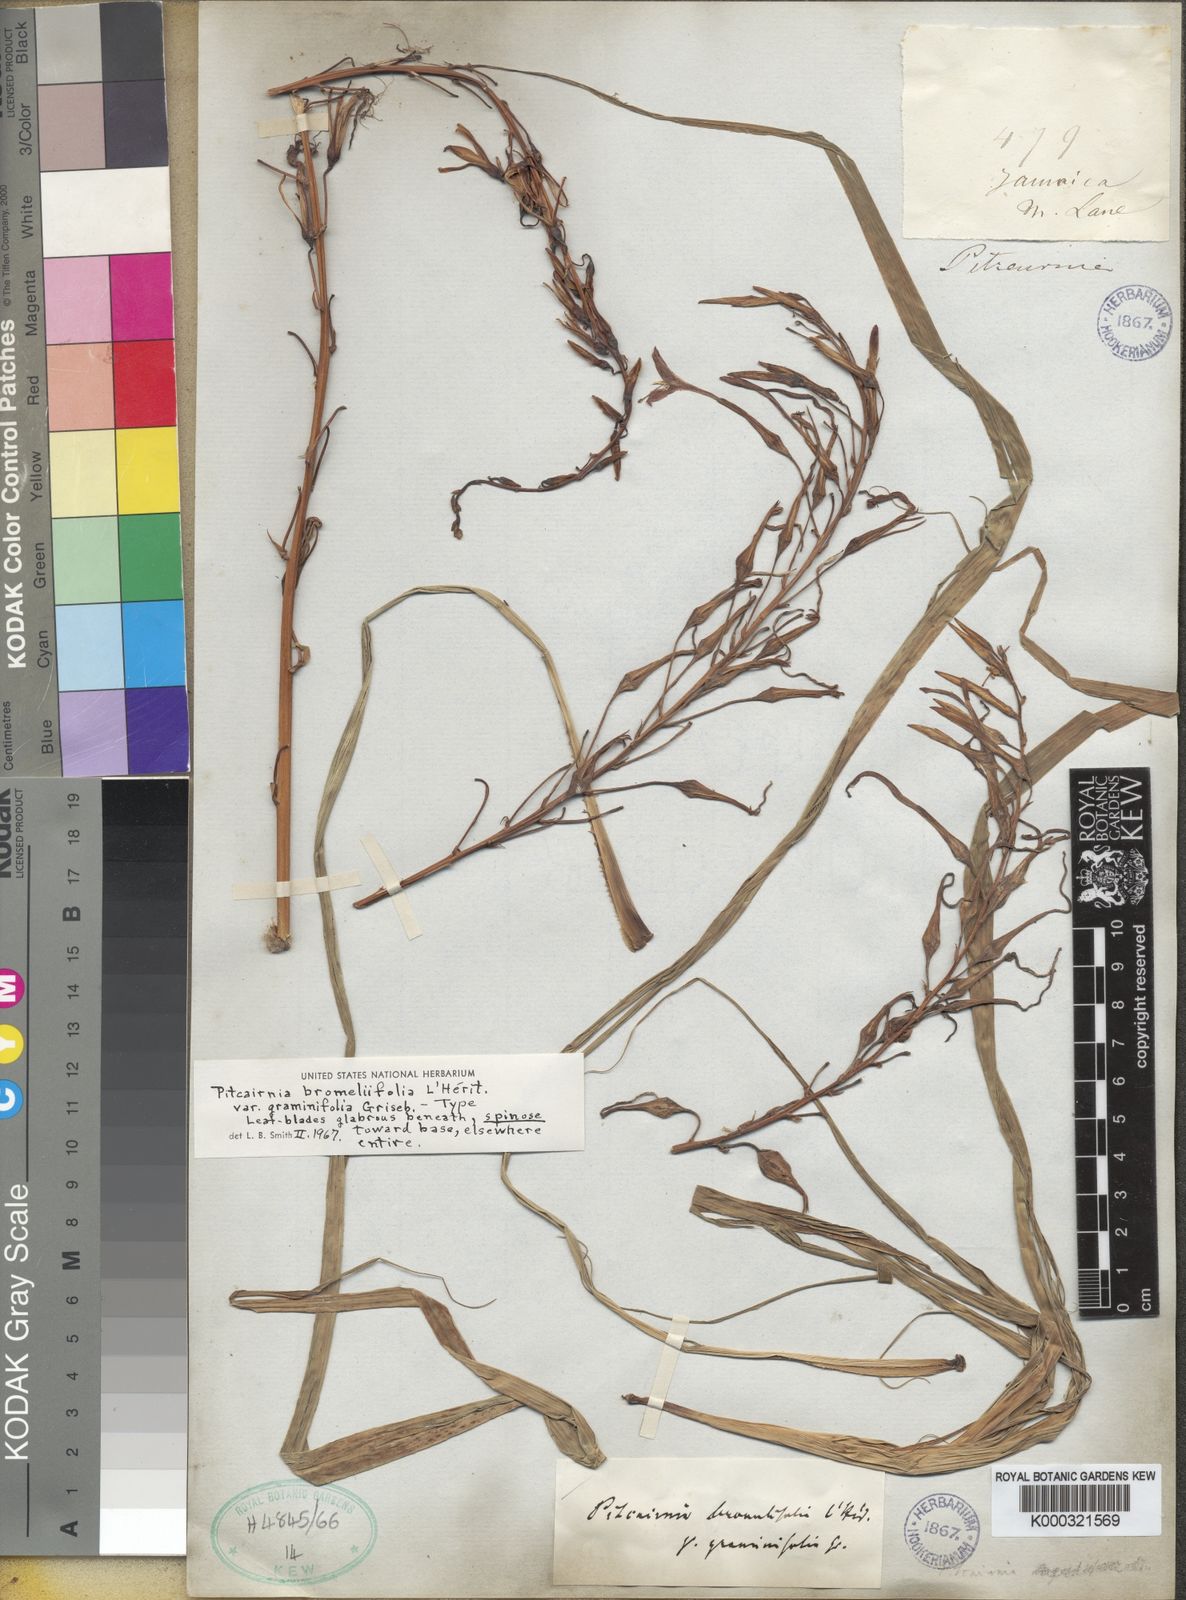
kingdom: Plantae
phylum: Tracheophyta
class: Liliopsida
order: Poales
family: Bromeliaceae
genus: Pitcairnia
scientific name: Pitcairnia bromeliifolia
